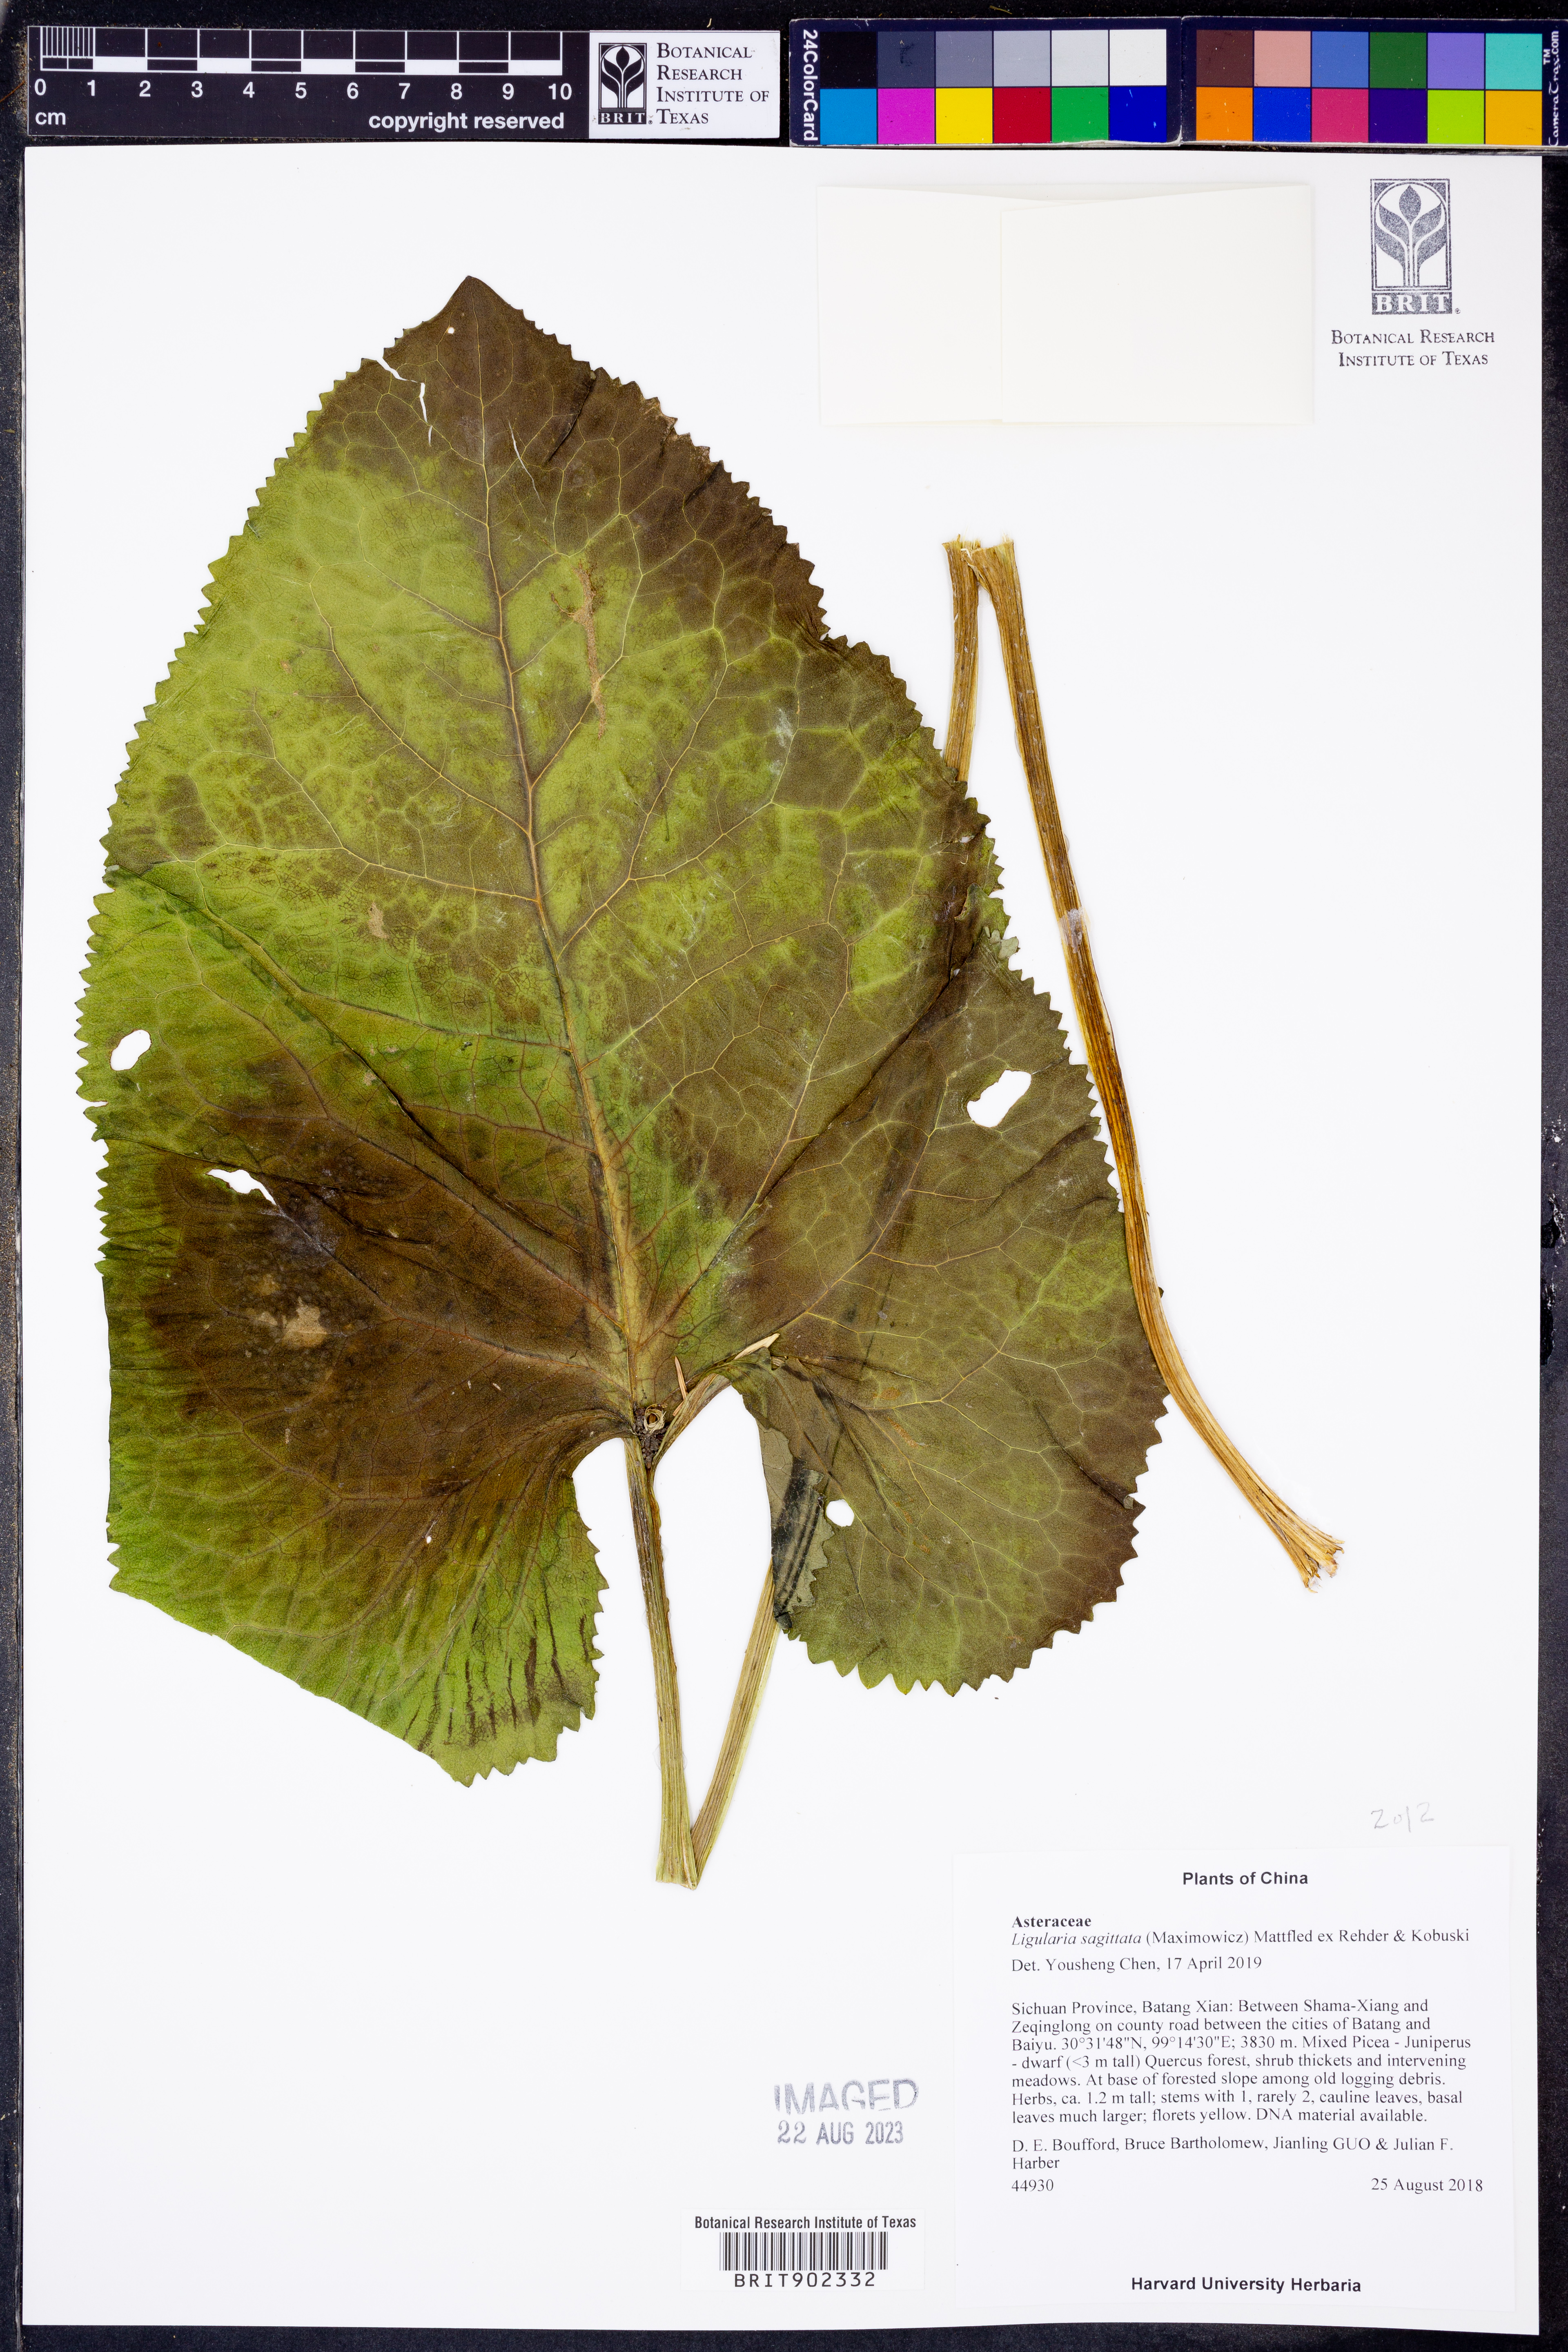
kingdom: Plantae
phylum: Tracheophyta
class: Magnoliopsida
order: Asterales
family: Asteraceae
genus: Ligularia
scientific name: Ligularia sagitta
